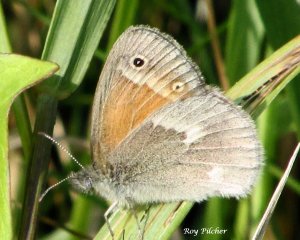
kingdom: Animalia
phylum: Arthropoda
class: Insecta
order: Lepidoptera
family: Nymphalidae
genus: Coenonympha
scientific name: Coenonympha tullia
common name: Large Heath
